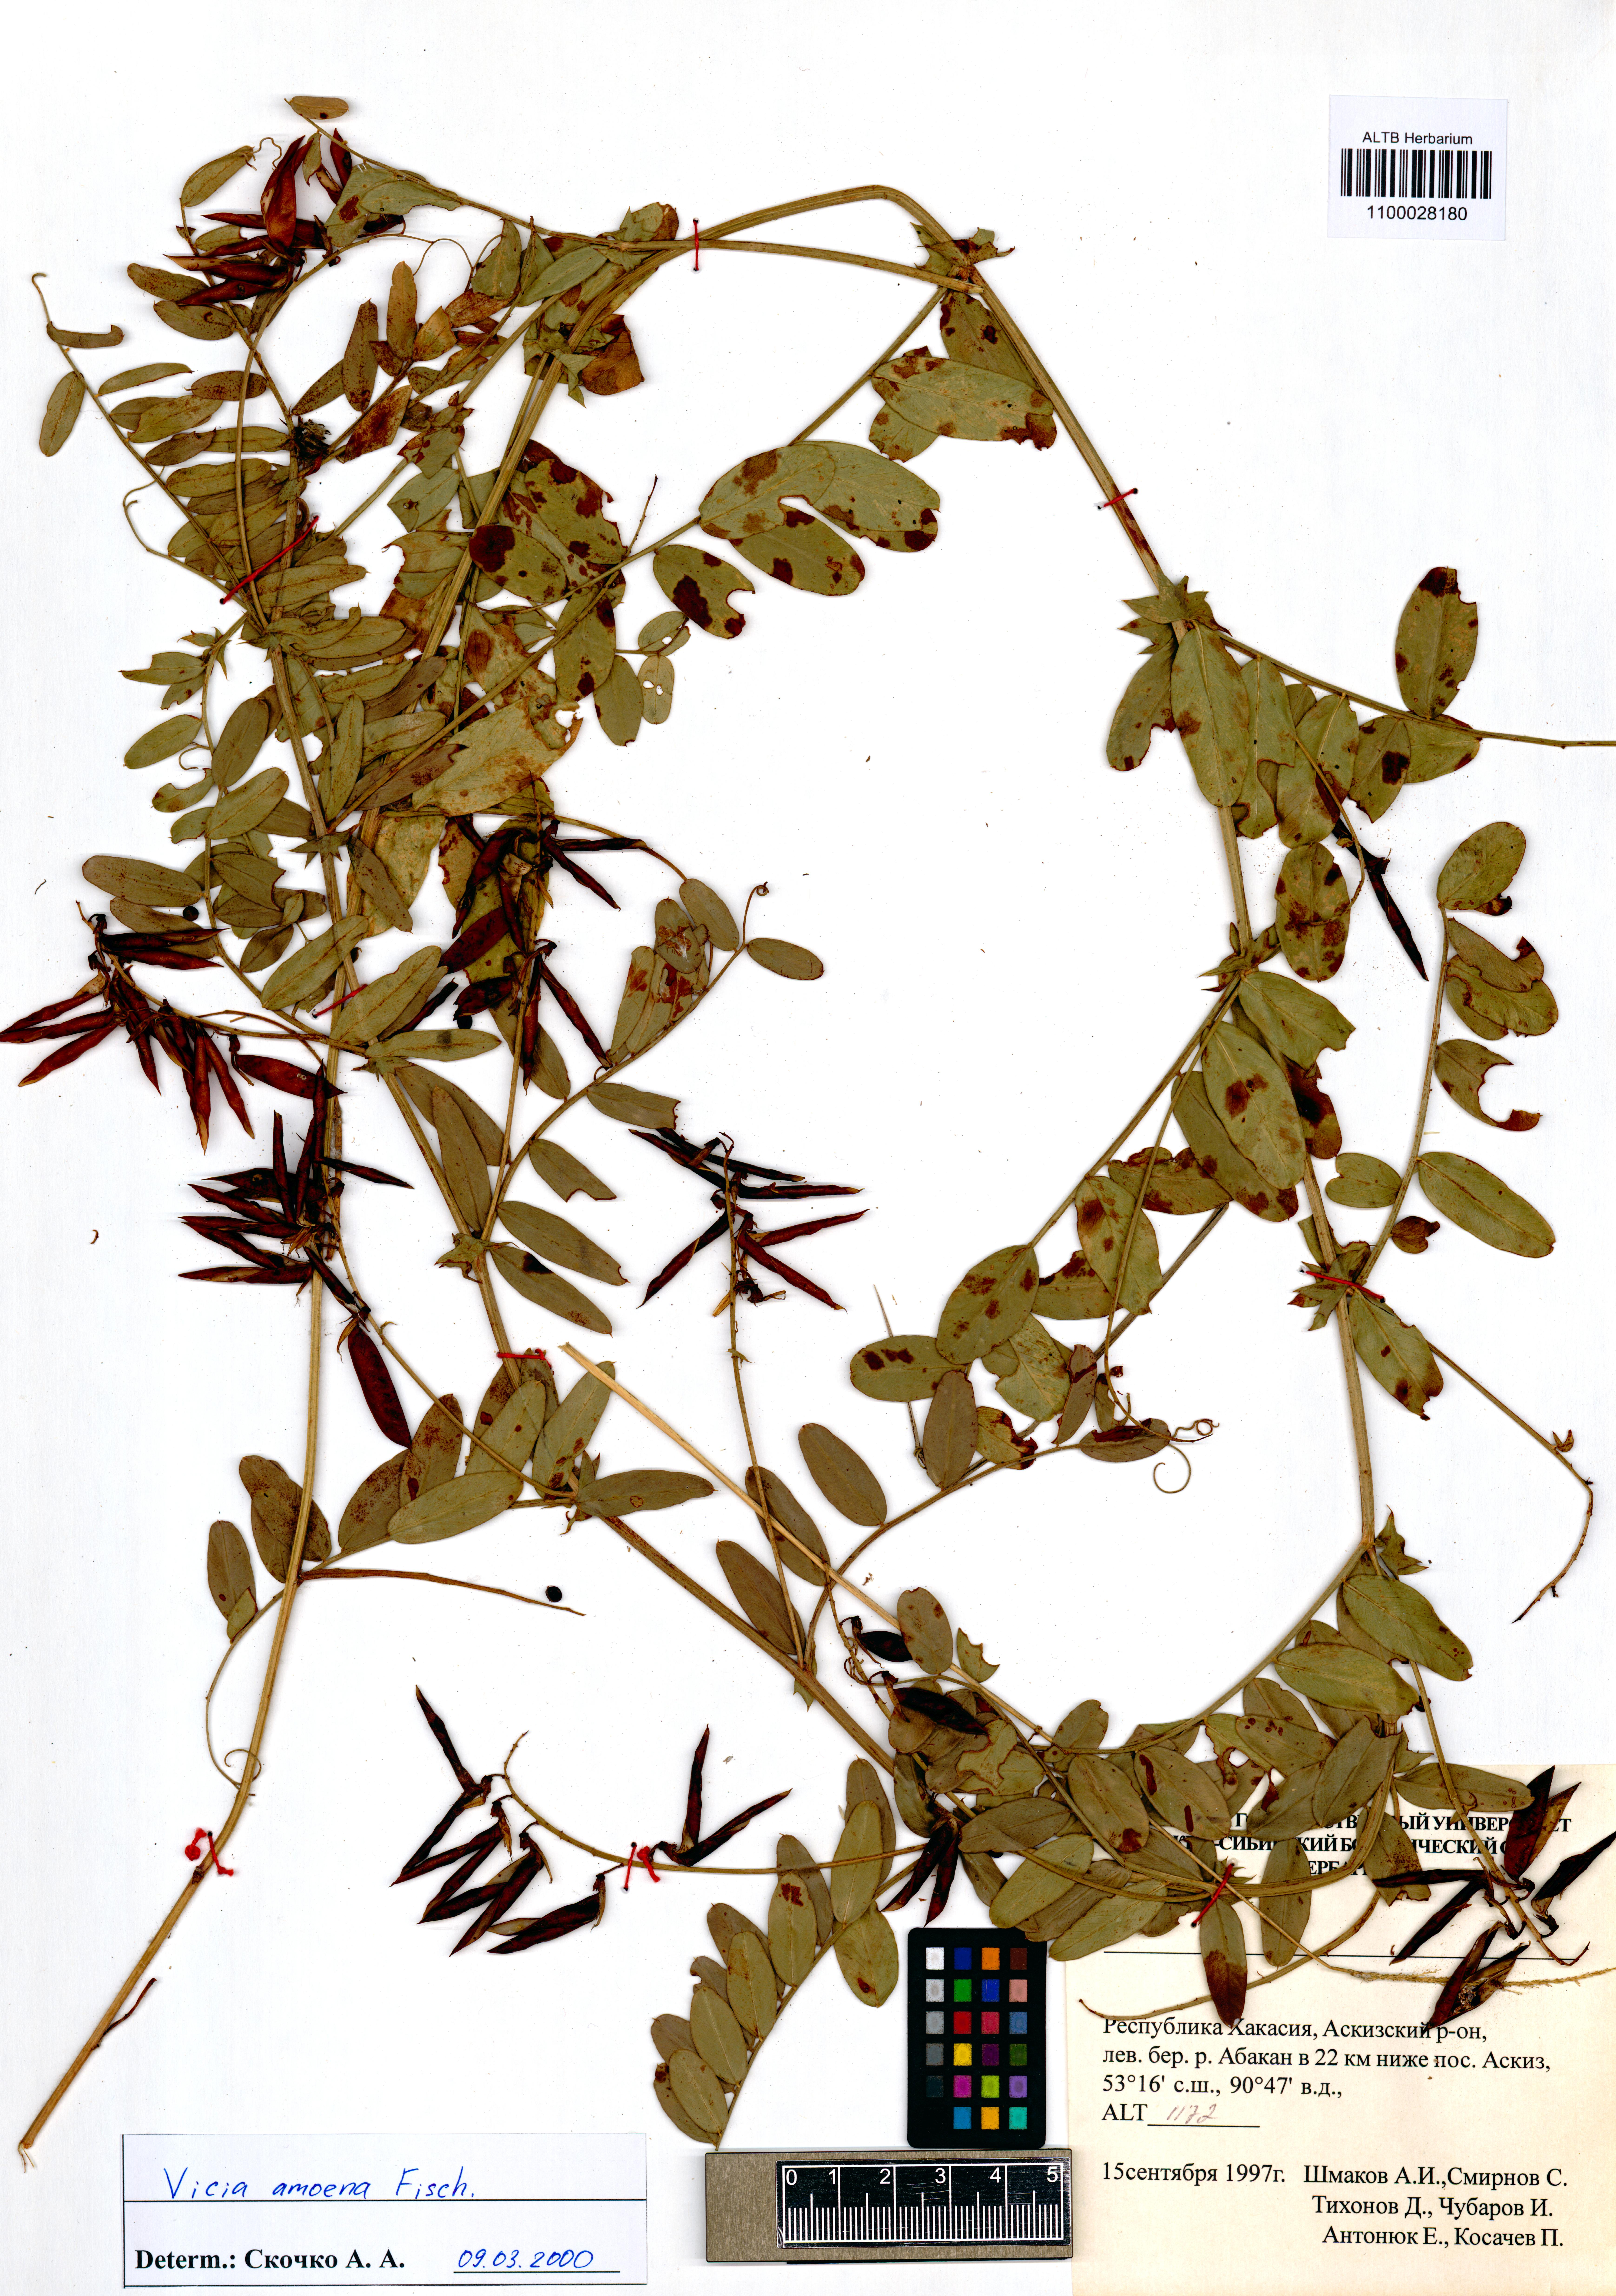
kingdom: Plantae
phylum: Tracheophyta
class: Magnoliopsida
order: Fabales
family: Fabaceae
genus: Vicia
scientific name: Vicia amoena
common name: Cheder ebs
